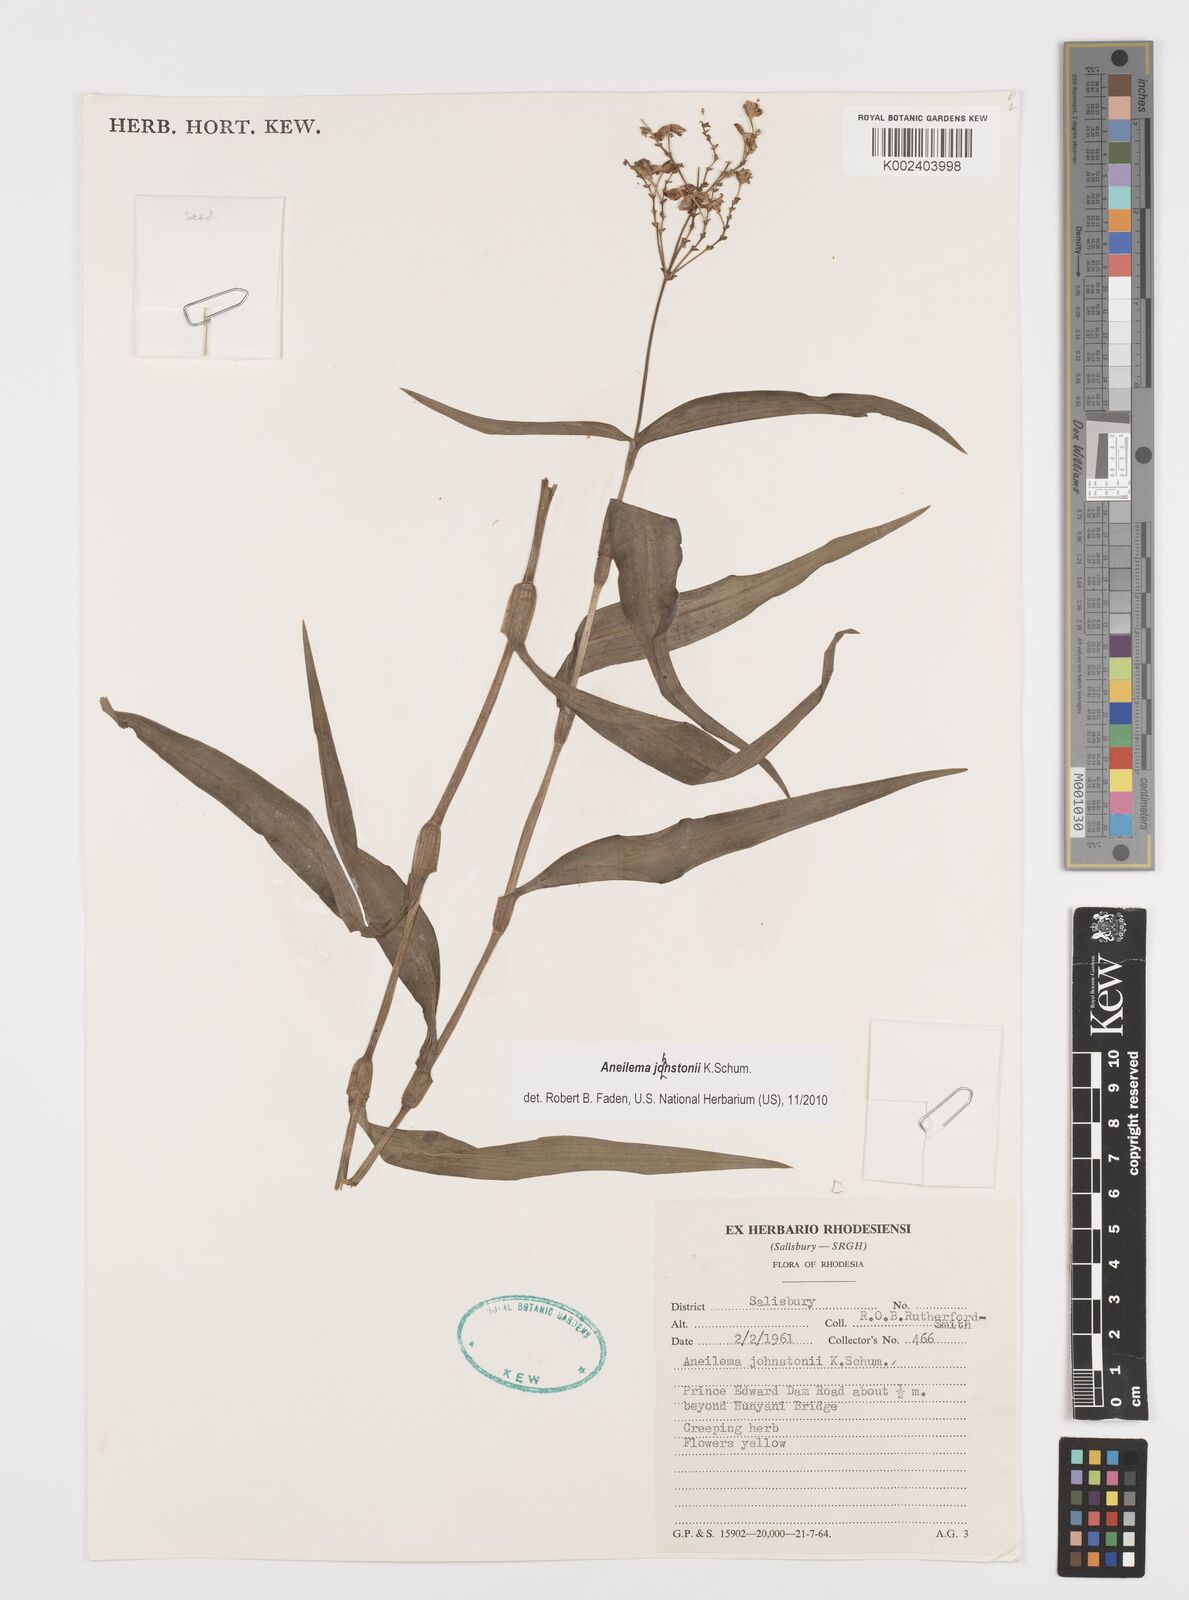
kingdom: Plantae
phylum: Tracheophyta
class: Liliopsida
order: Commelinales
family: Commelinaceae
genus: Aneilema
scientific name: Aneilema johnstonii
